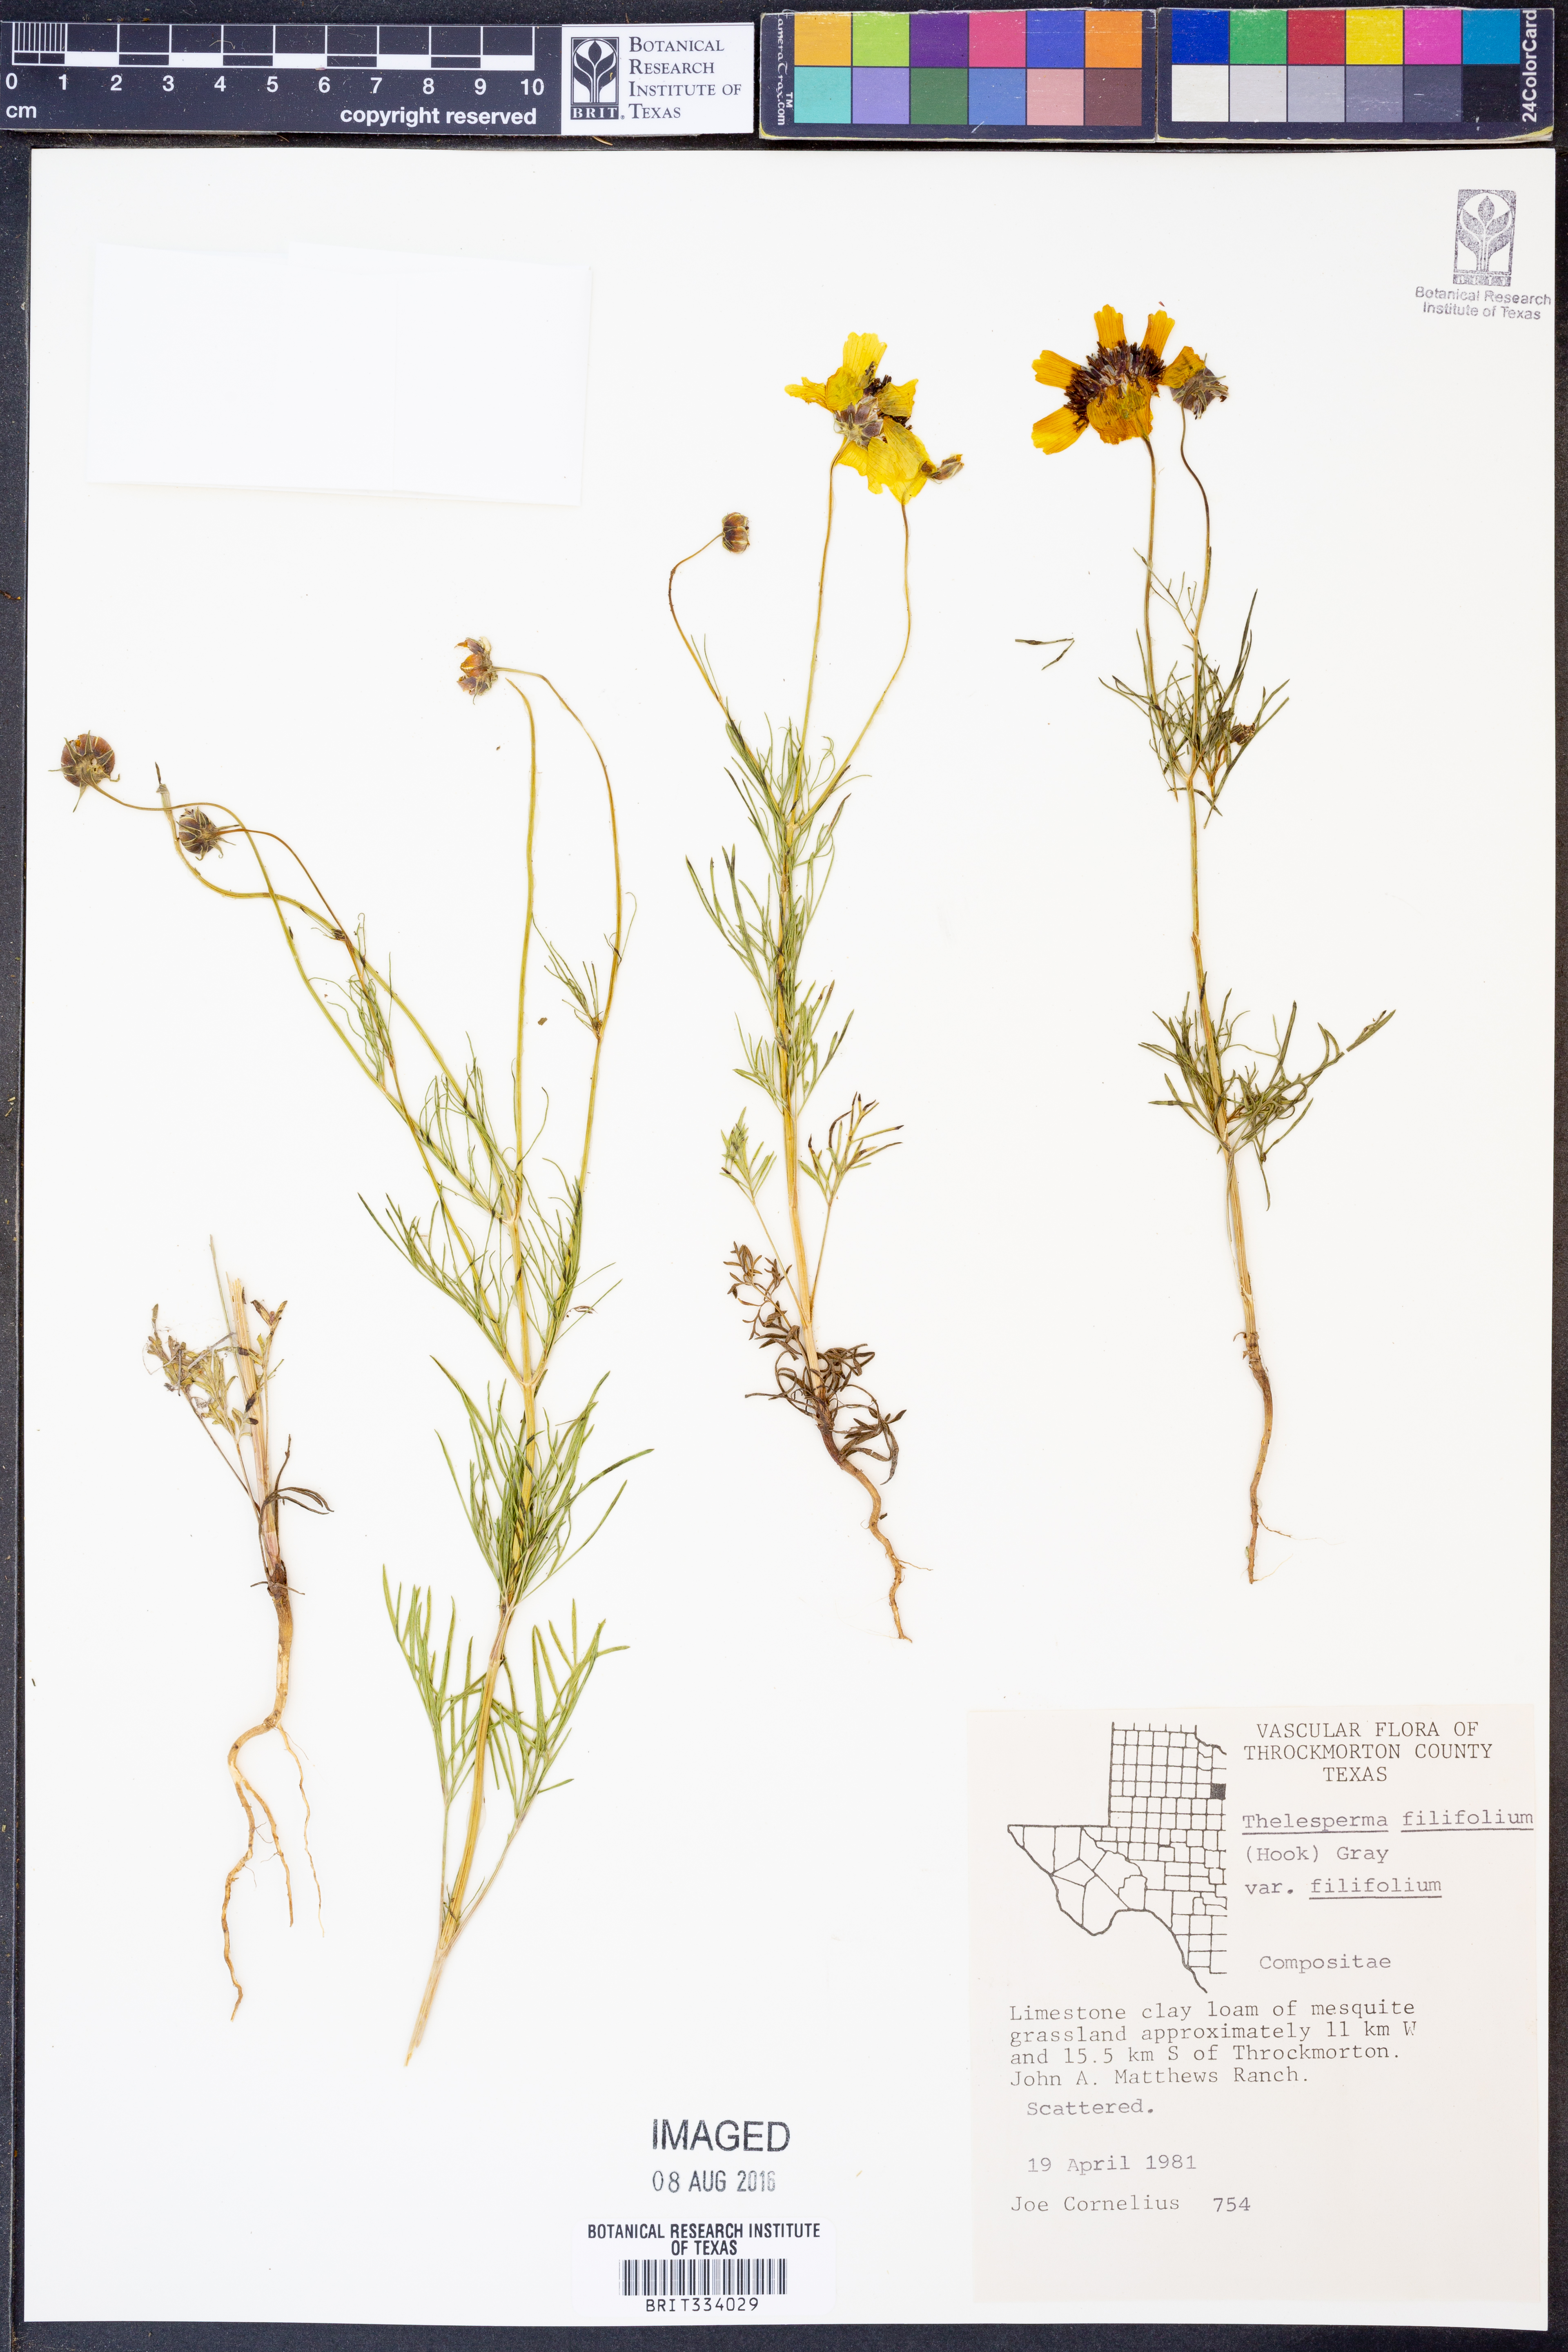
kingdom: Plantae
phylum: Tracheophyta
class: Magnoliopsida
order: Asterales
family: Asteraceae
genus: Thelesperma
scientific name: Thelesperma filifolium
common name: Stiff greenthread
